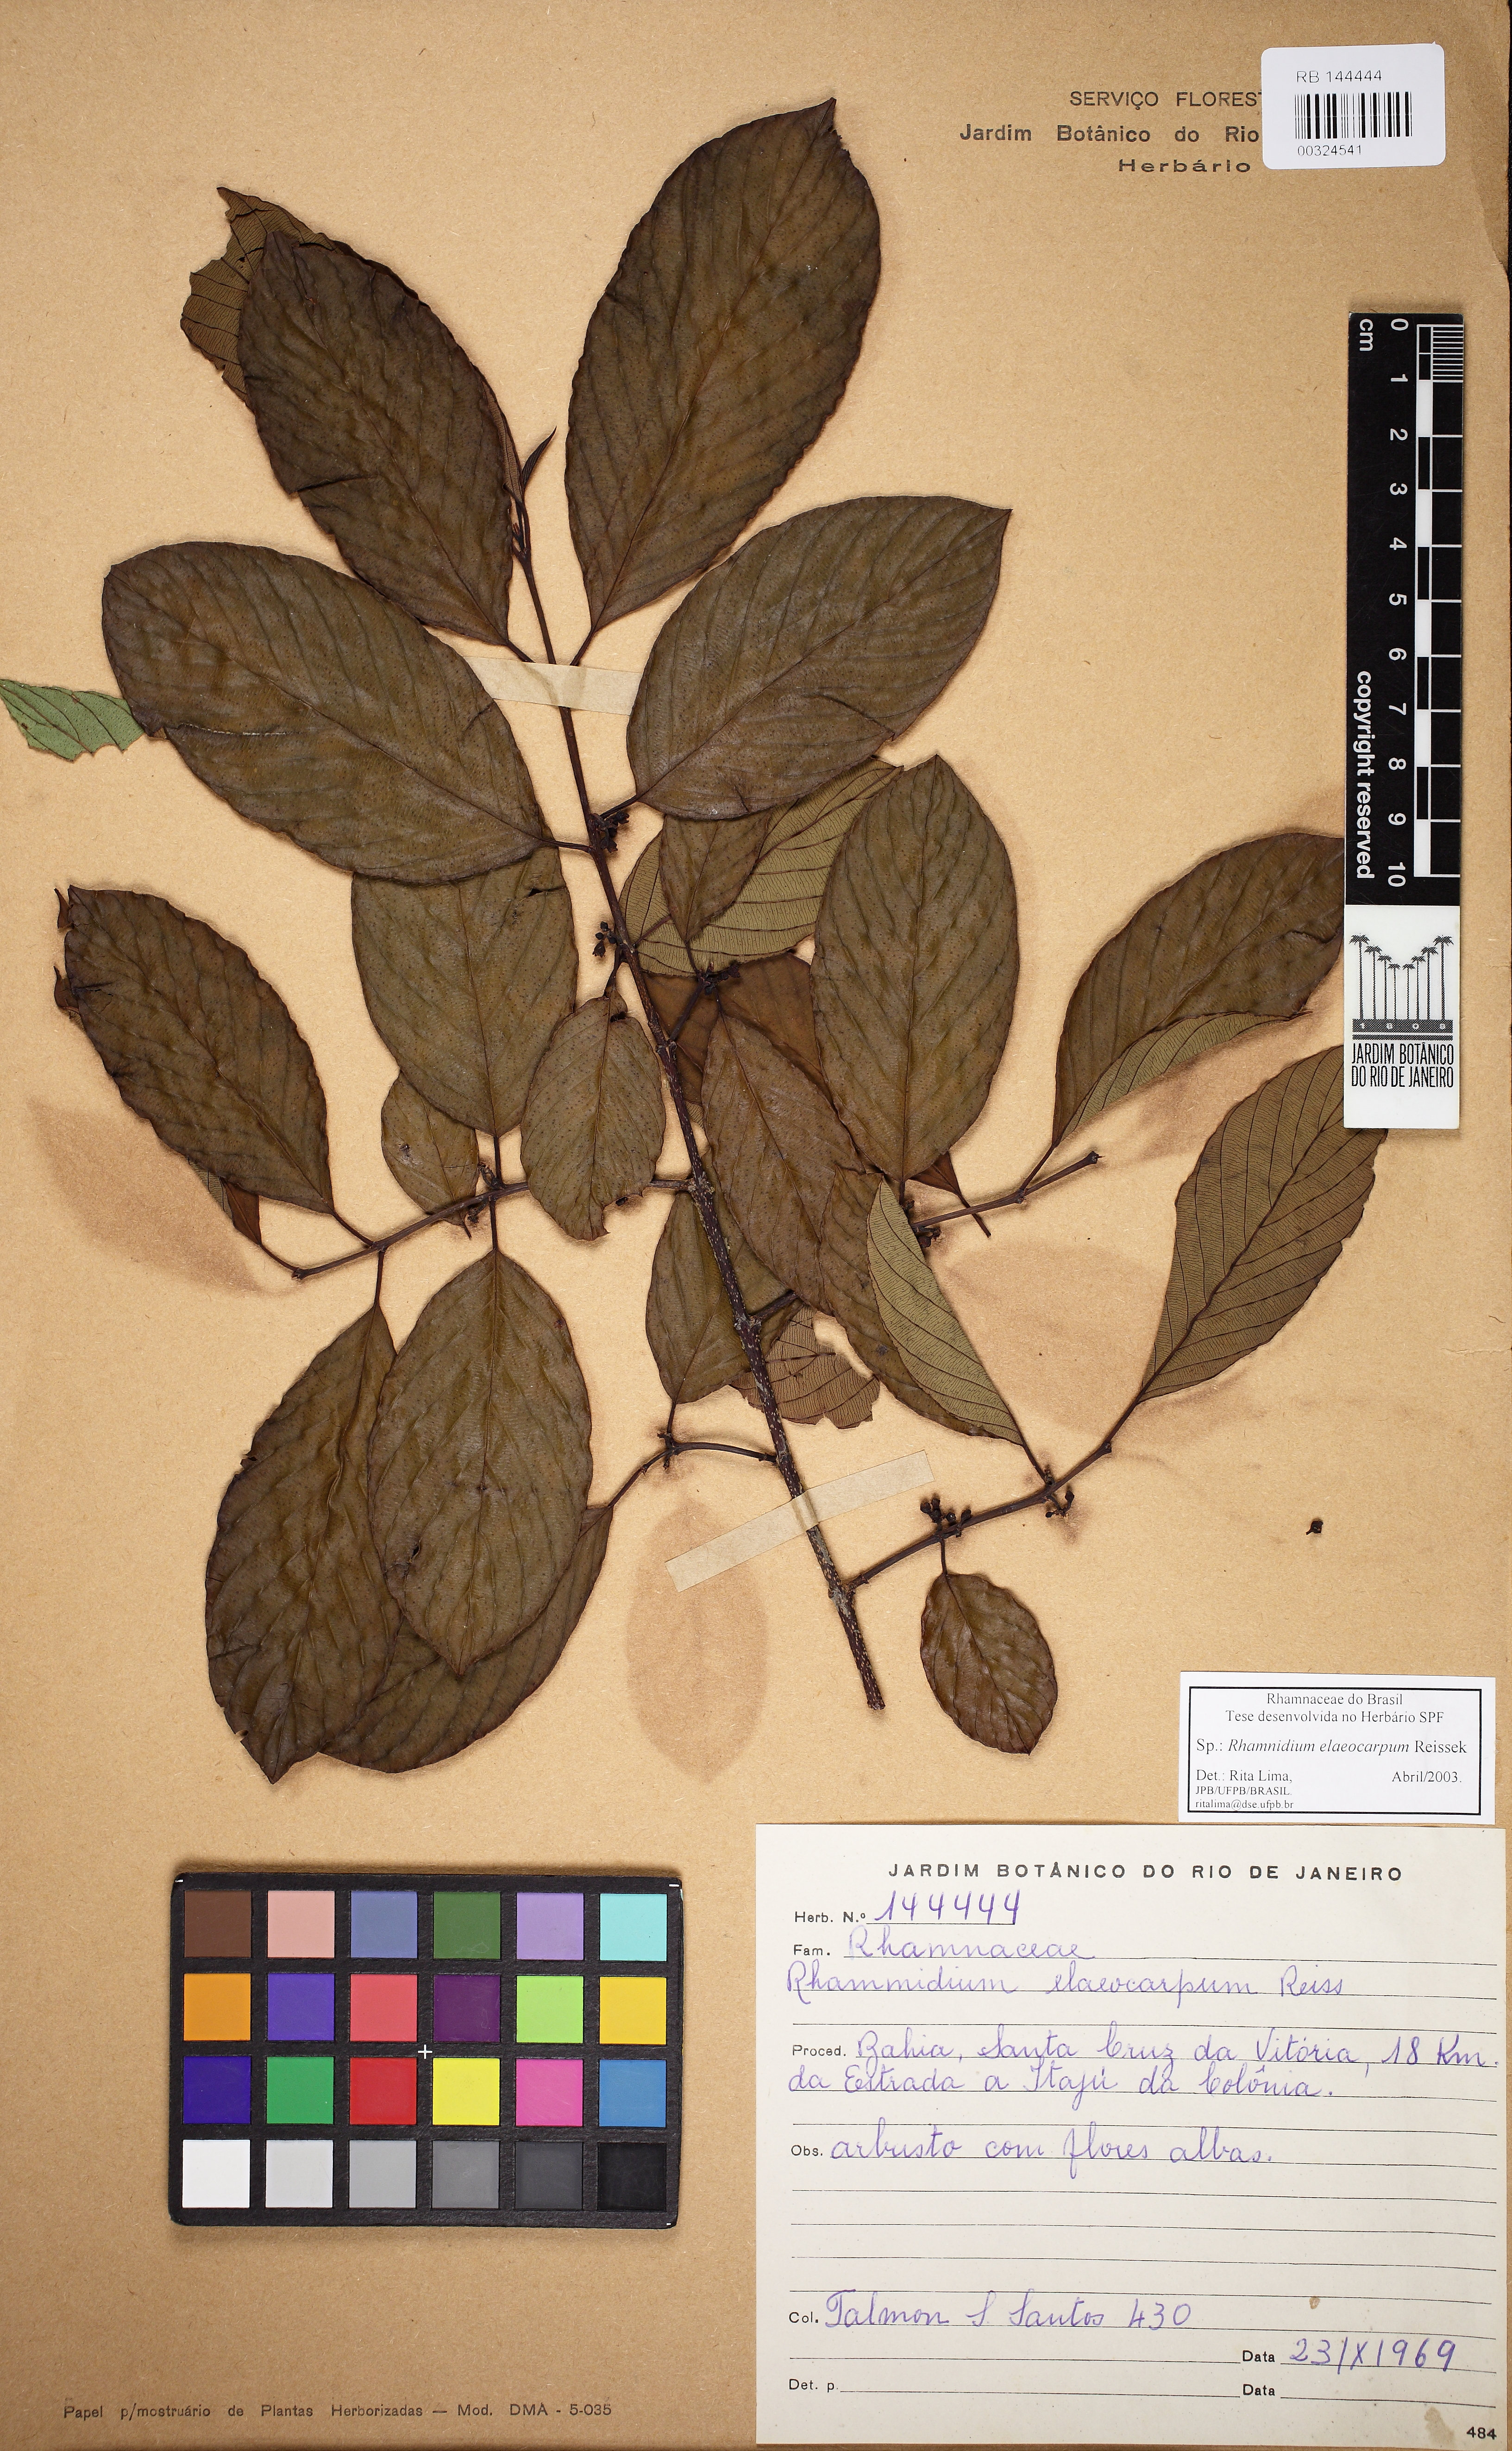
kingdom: Plantae
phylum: Tracheophyta
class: Magnoliopsida
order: Rosales
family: Rhamnaceae
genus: Rhamnidium
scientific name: Rhamnidium elaeocarpum
